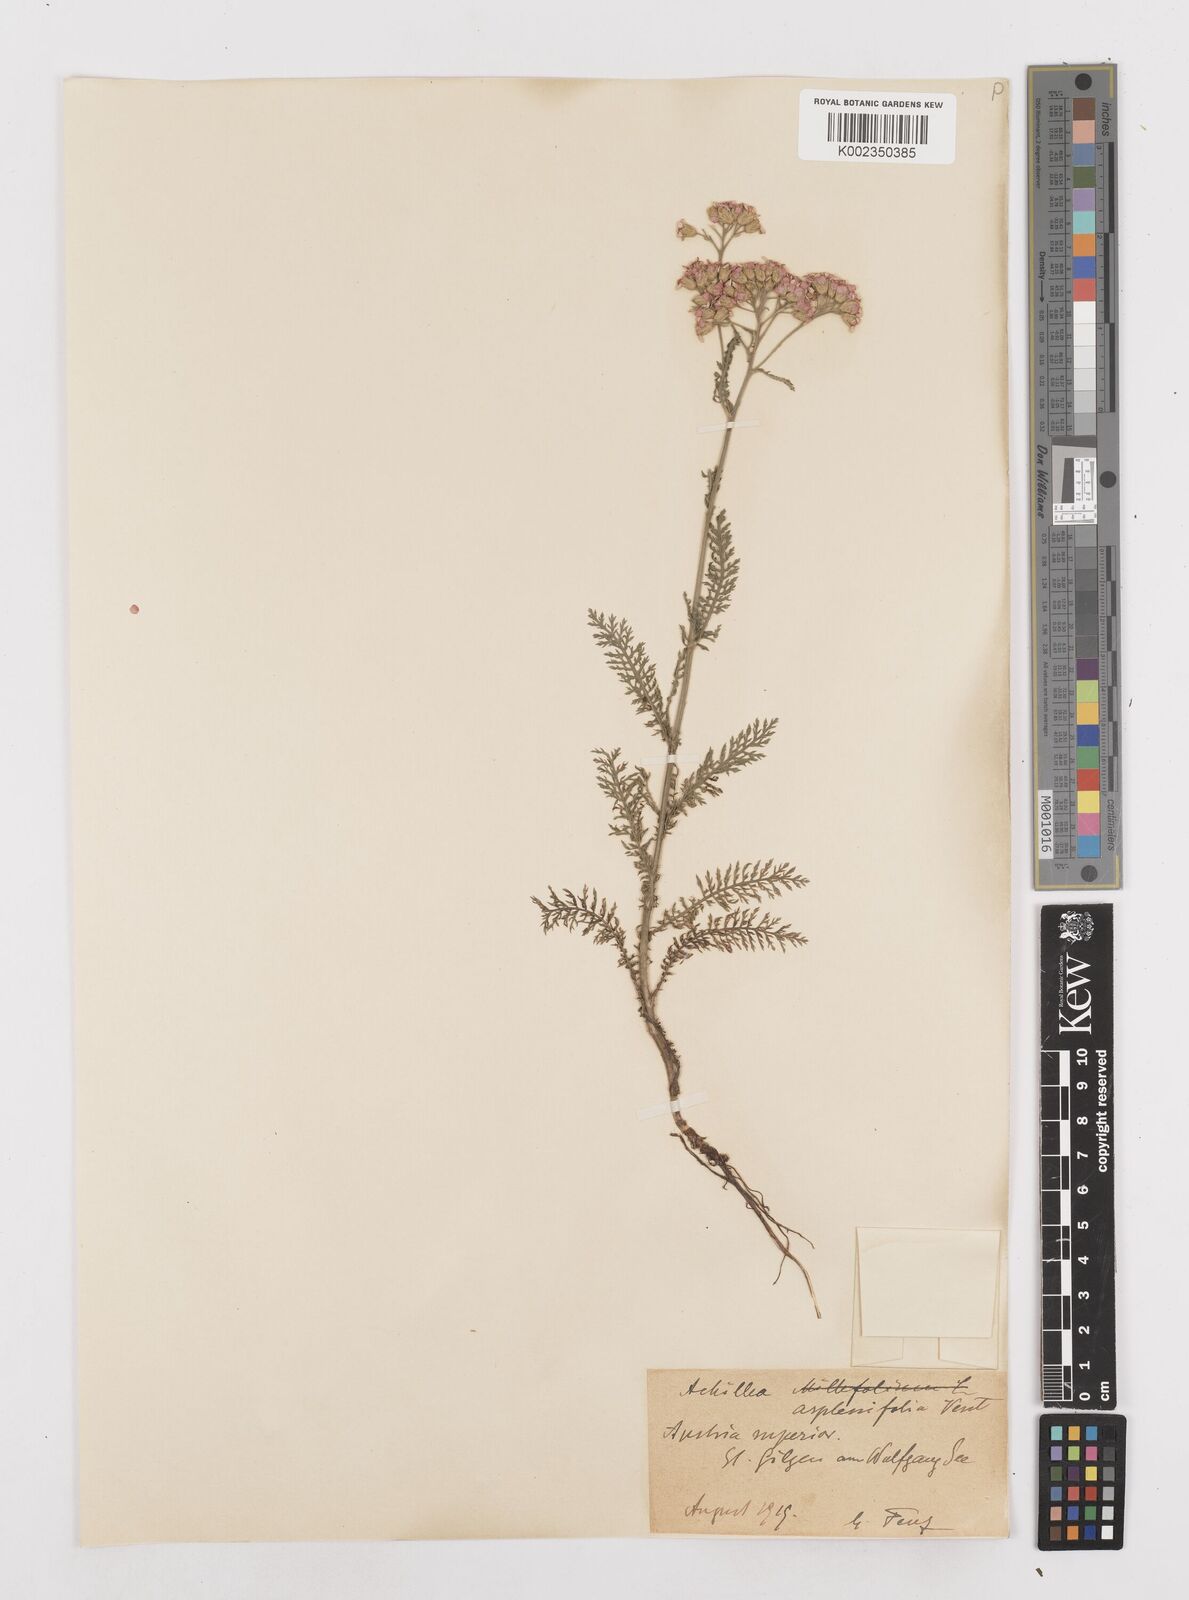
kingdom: Plantae
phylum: Tracheophyta
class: Magnoliopsida
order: Asterales
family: Asteraceae
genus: Achillea
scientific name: Achillea macrophylla
